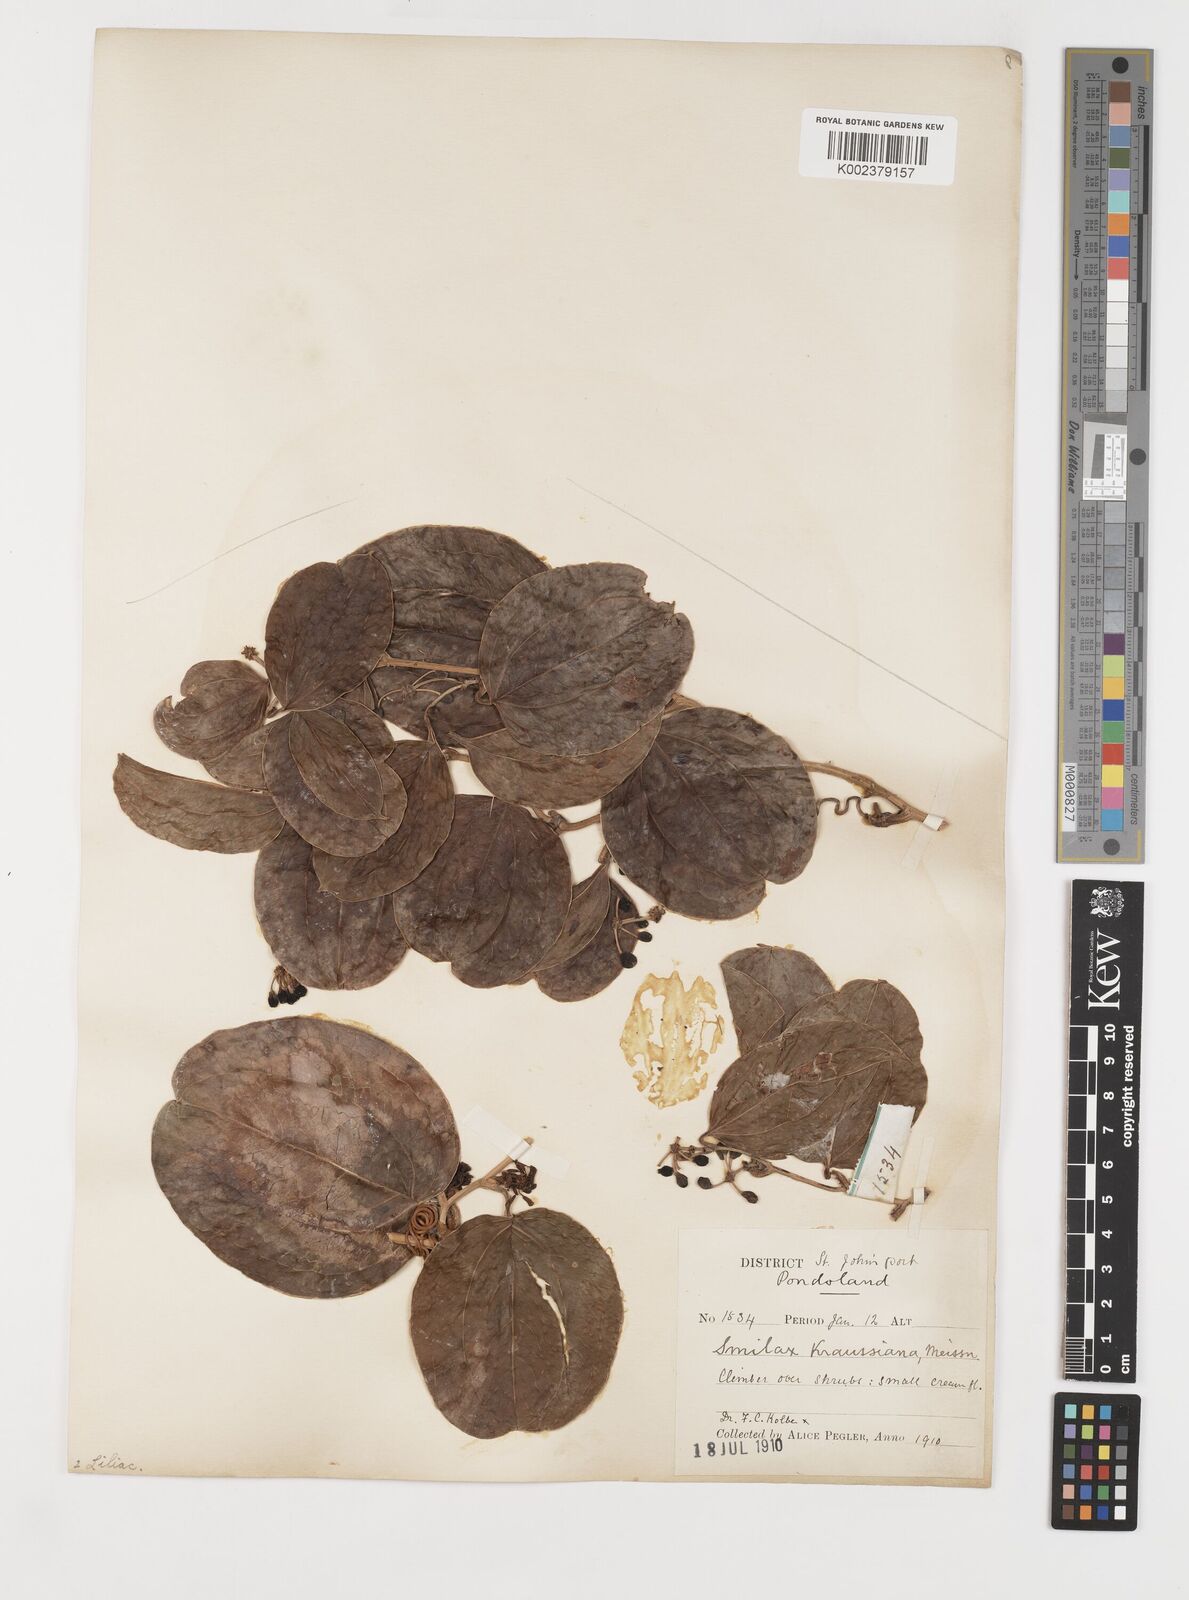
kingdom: Plantae
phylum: Tracheophyta
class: Liliopsida
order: Liliales
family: Smilacaceae
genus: Smilax
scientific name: Smilax anceps
